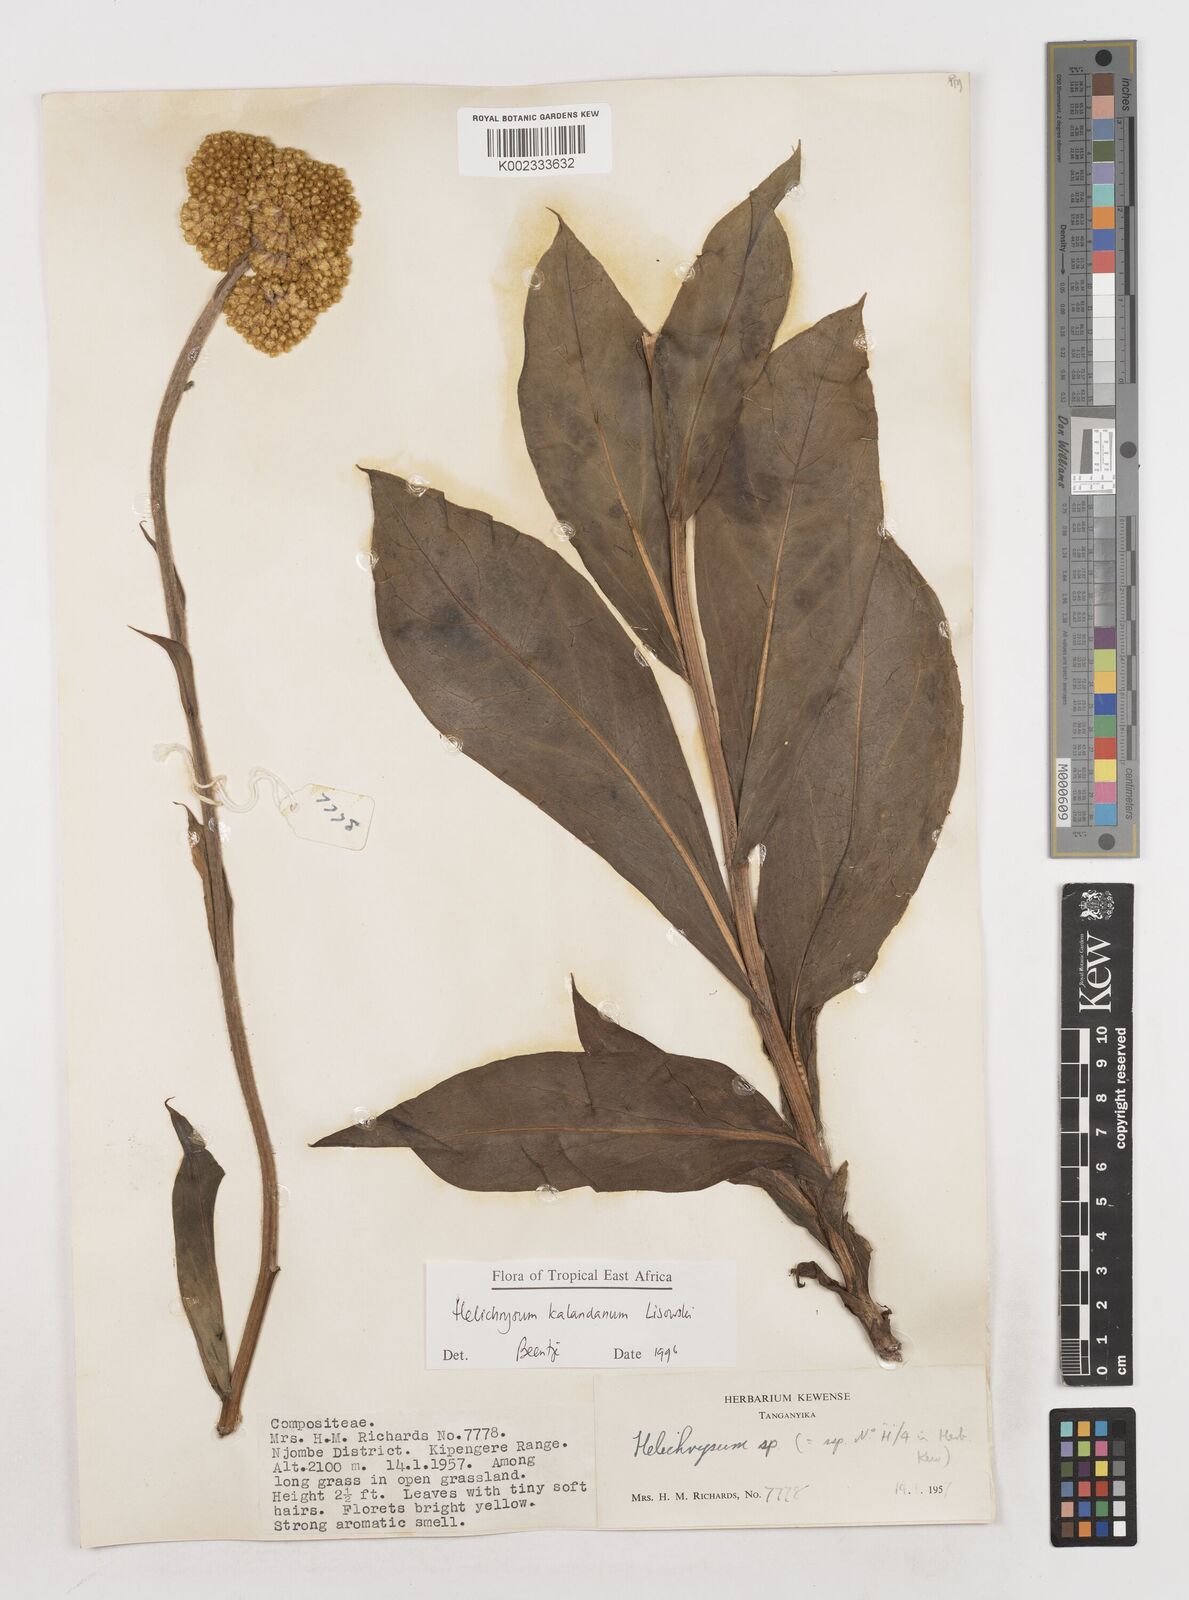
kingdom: Plantae
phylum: Tracheophyta
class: Magnoliopsida
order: Asterales
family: Asteraceae
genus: Helichrysum
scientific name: Helichrysum kalandanum
